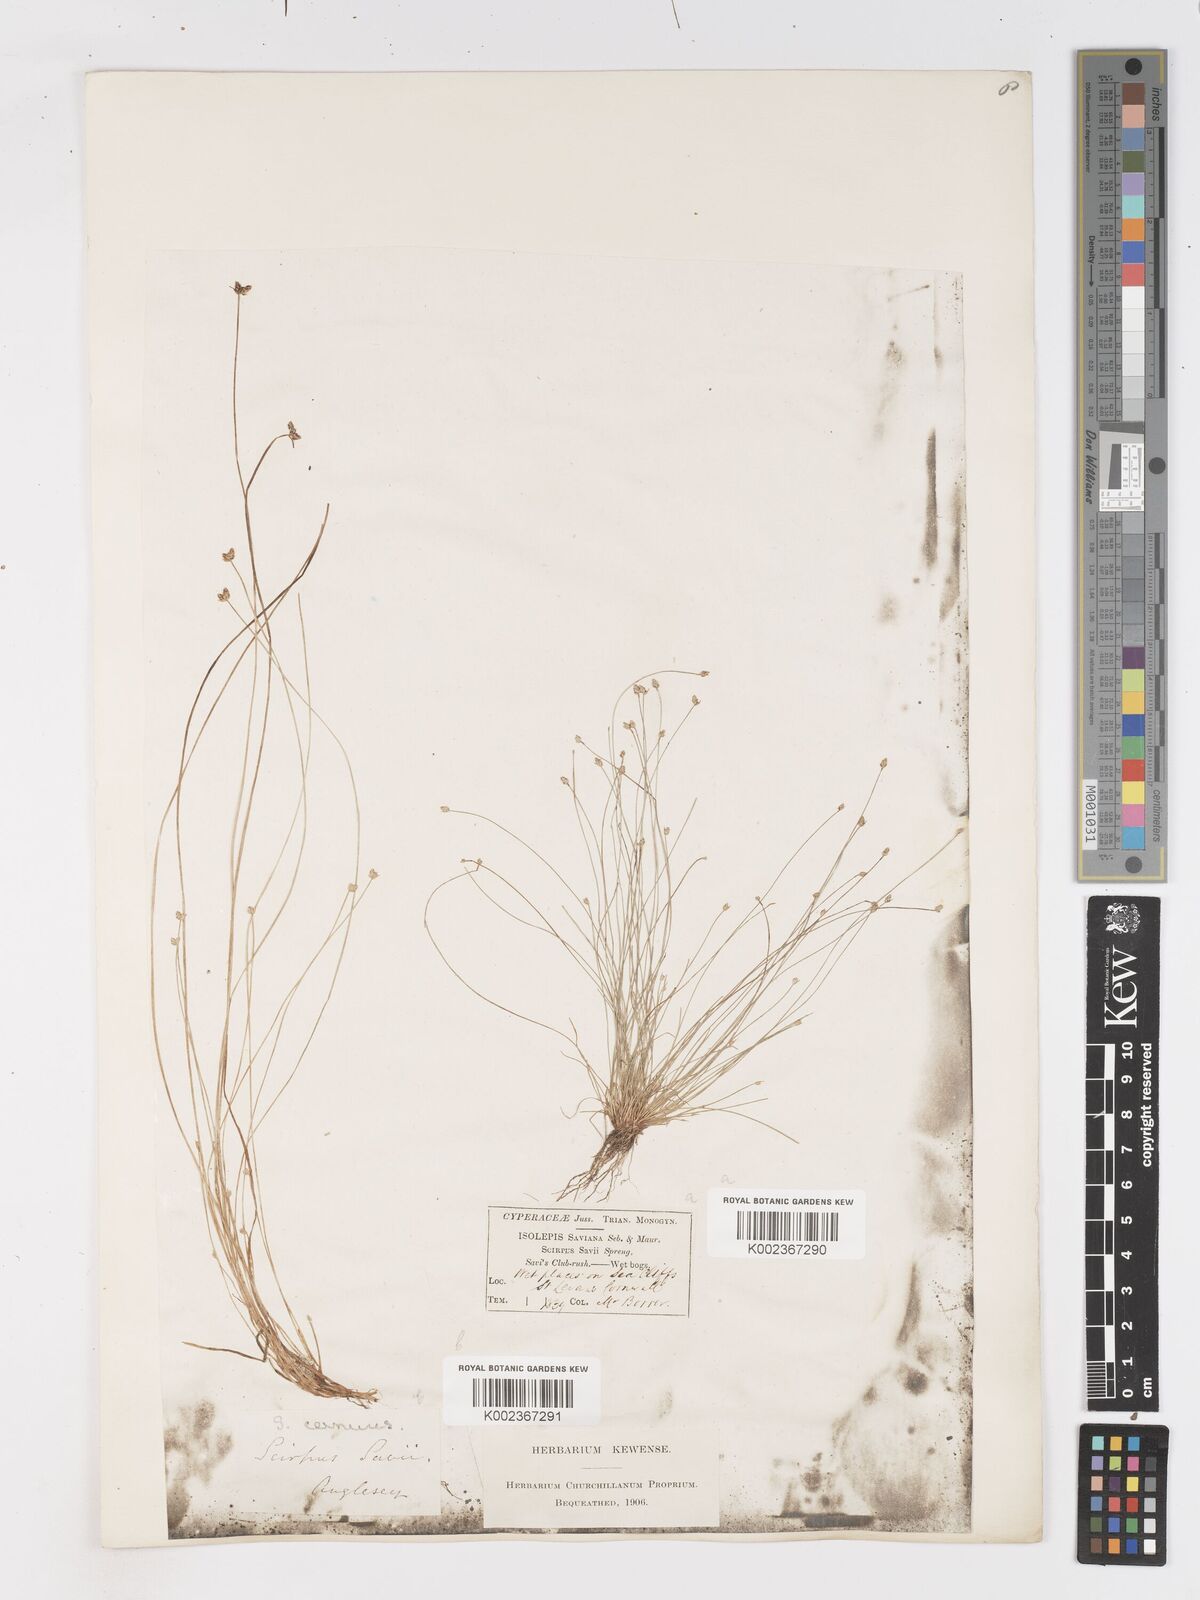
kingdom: Plantae
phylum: Tracheophyta
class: Liliopsida
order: Poales
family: Cyperaceae
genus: Isolepis
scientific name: Isolepis cernua
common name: Slender club-rush
